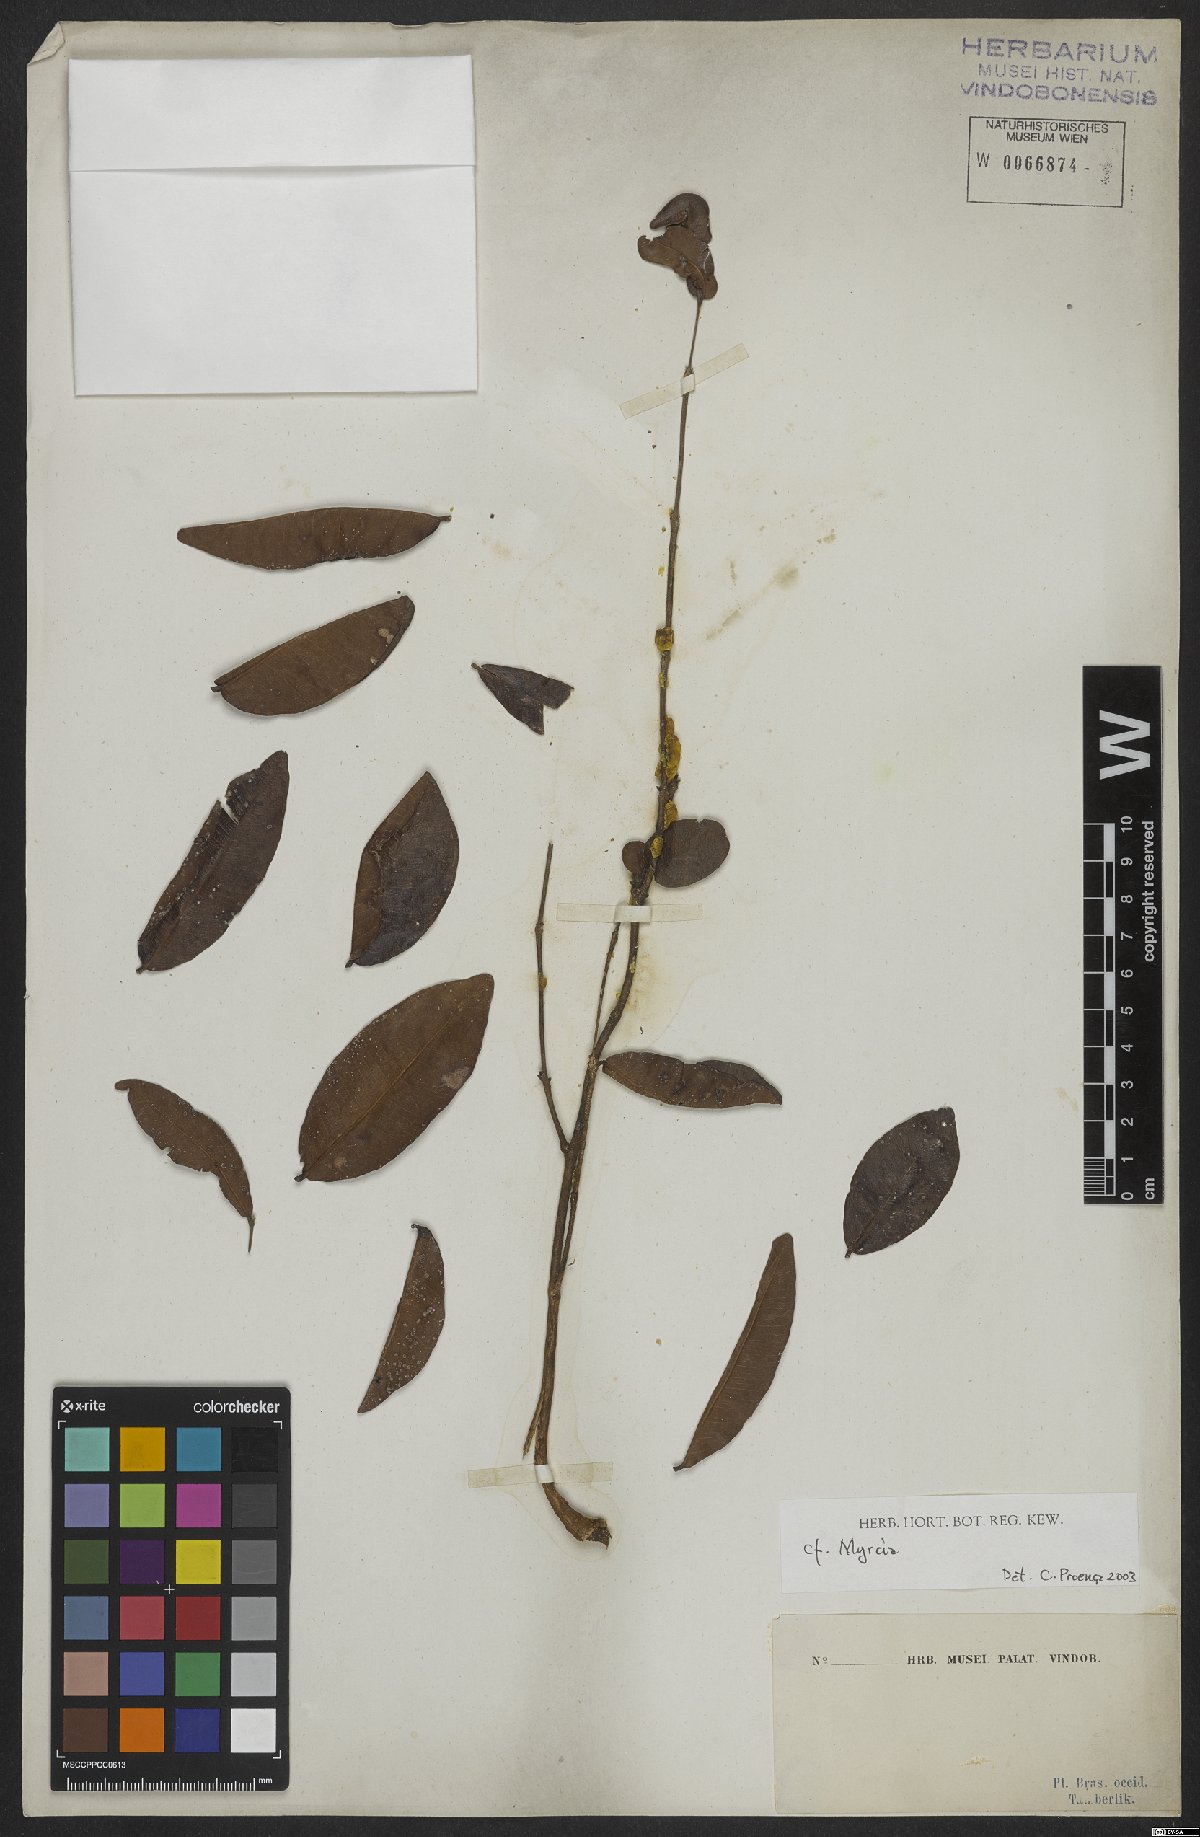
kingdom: Plantae
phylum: Tracheophyta
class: Magnoliopsida
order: Myrtales
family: Myrtaceae
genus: Myrcia
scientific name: Myrcia
